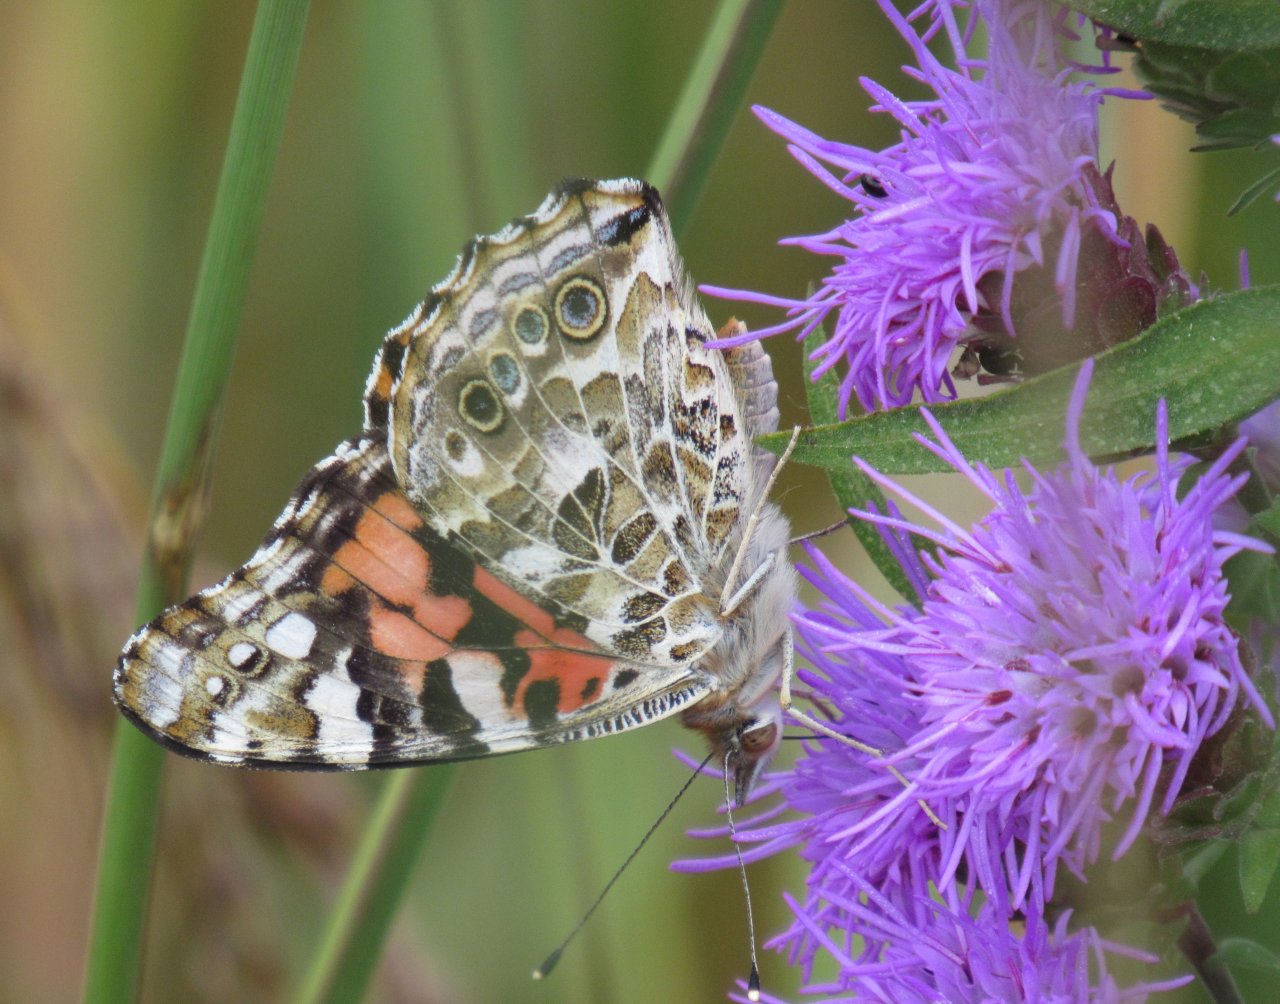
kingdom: Animalia
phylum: Arthropoda
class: Insecta
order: Lepidoptera
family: Nymphalidae
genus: Vanessa
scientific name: Vanessa cardui
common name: Painted Lady
